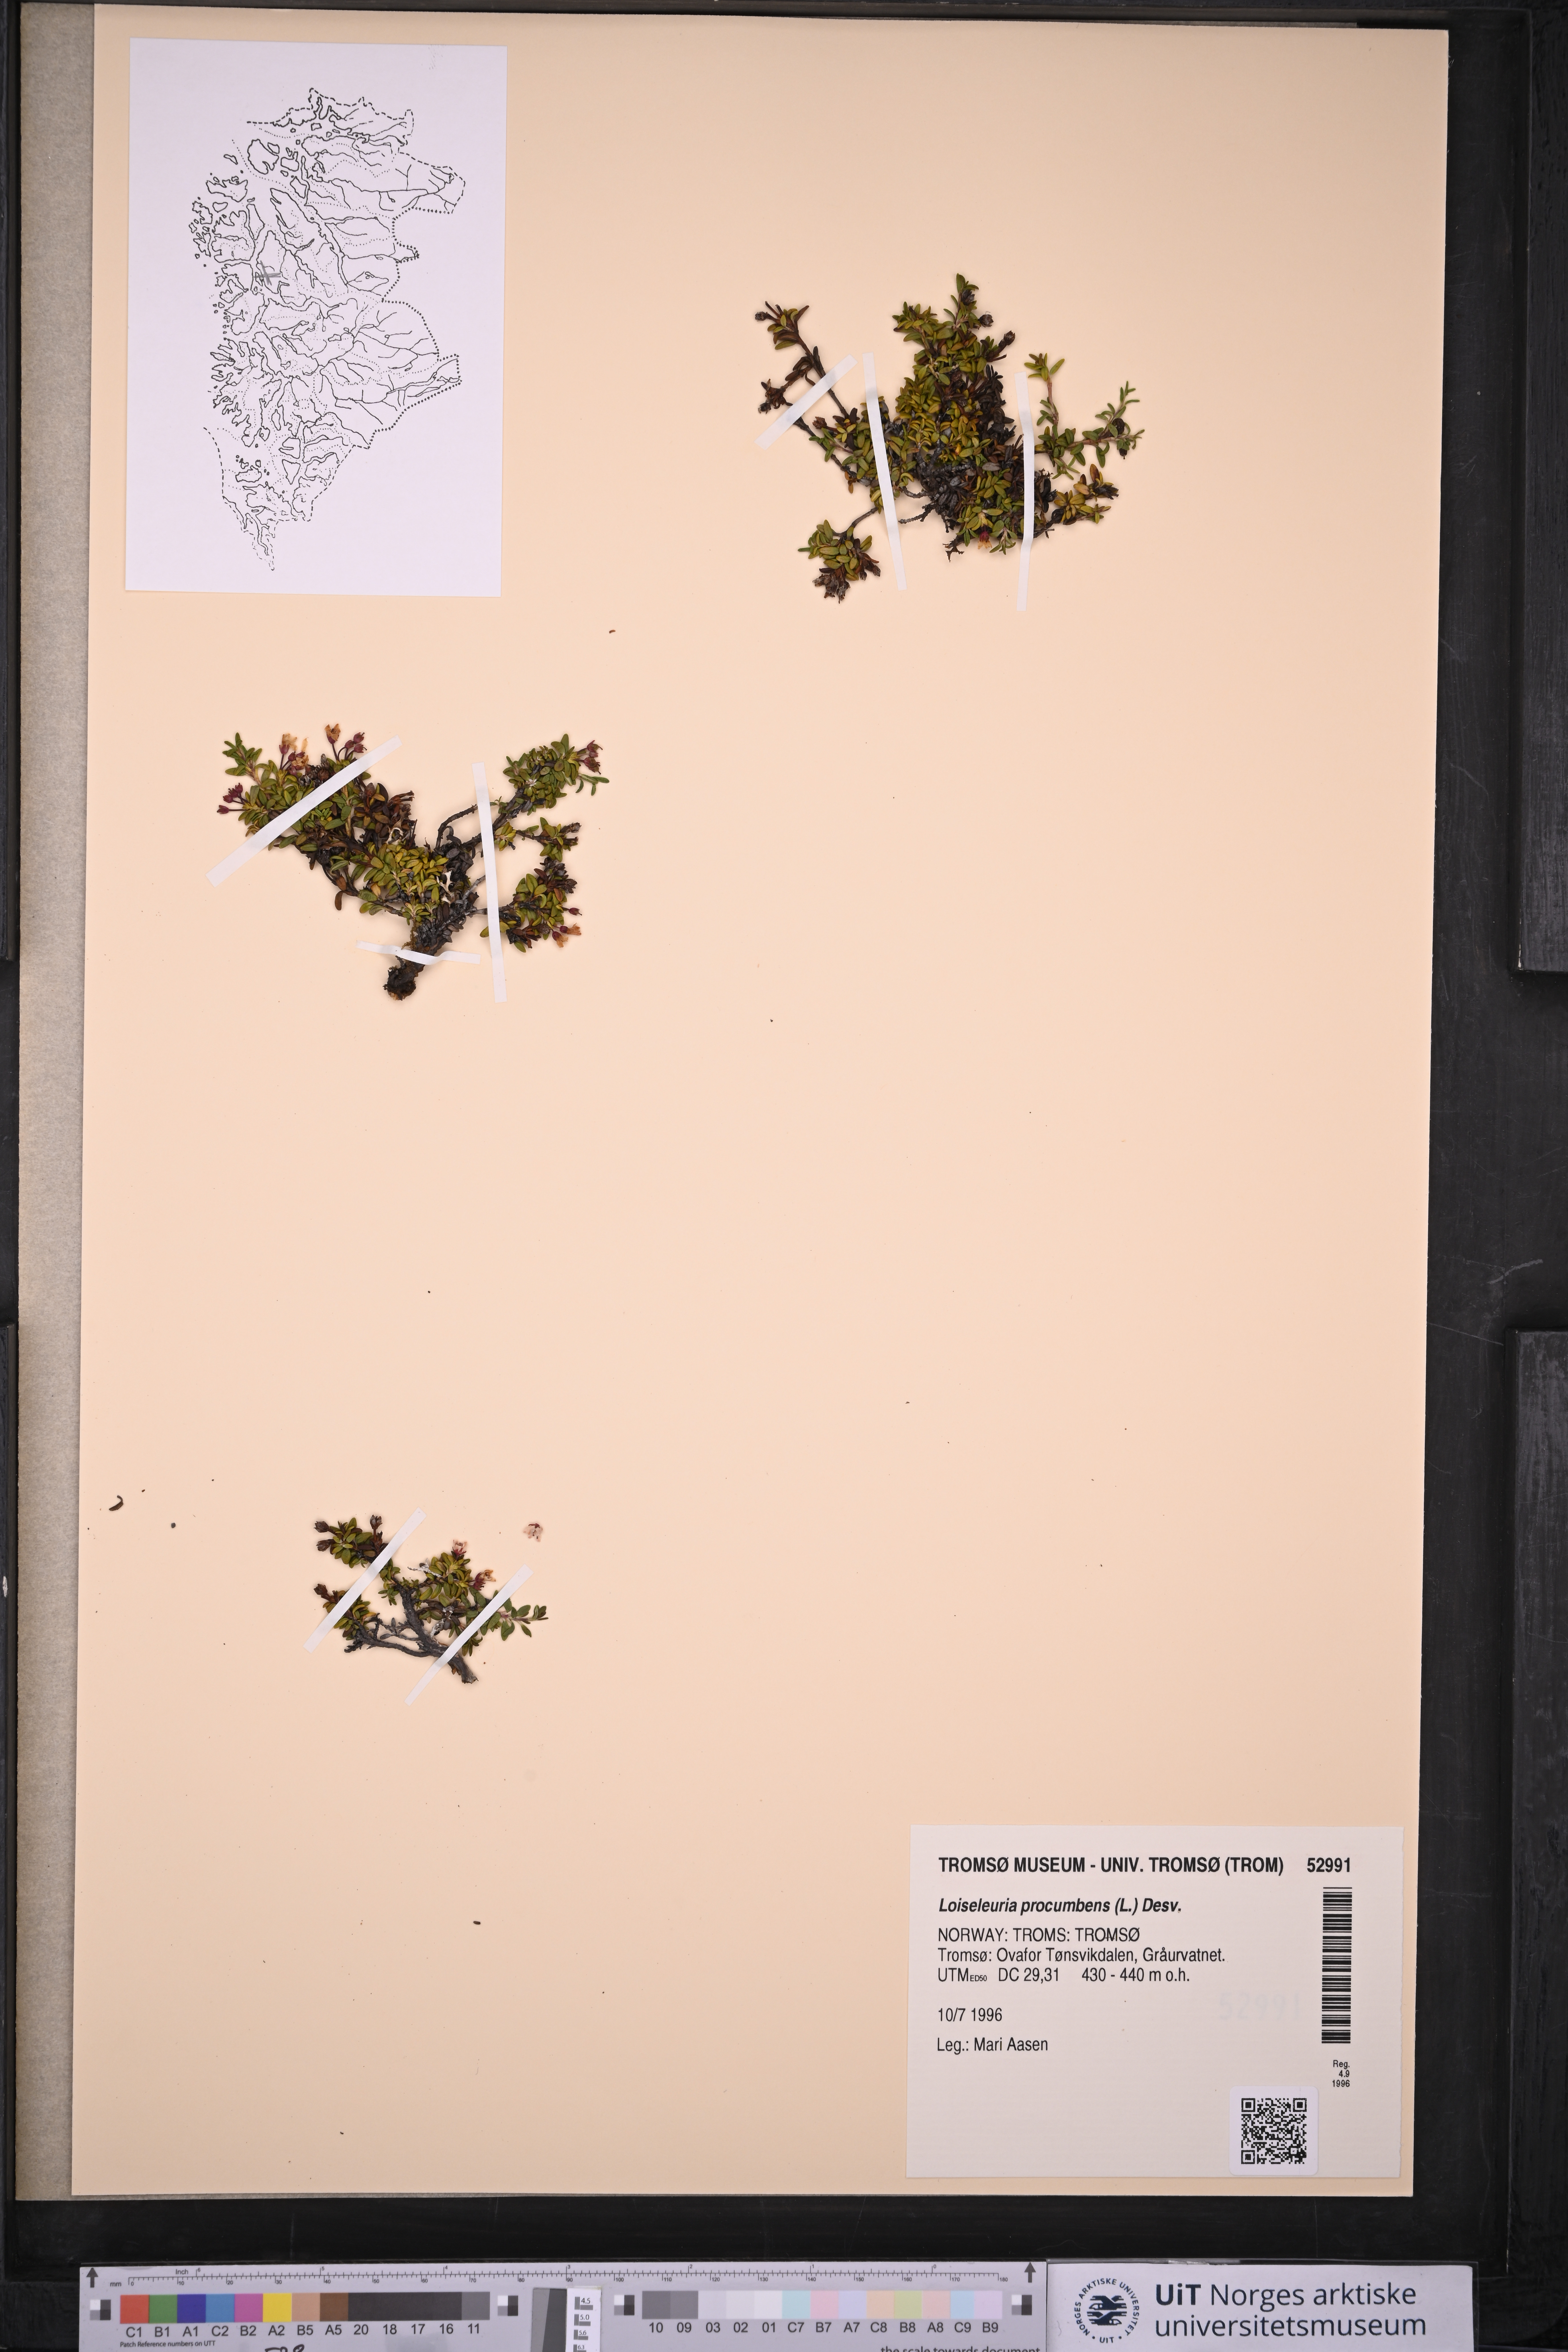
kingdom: Plantae
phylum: Tracheophyta
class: Magnoliopsida
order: Ericales
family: Ericaceae
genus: Kalmia
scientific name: Kalmia procumbens
